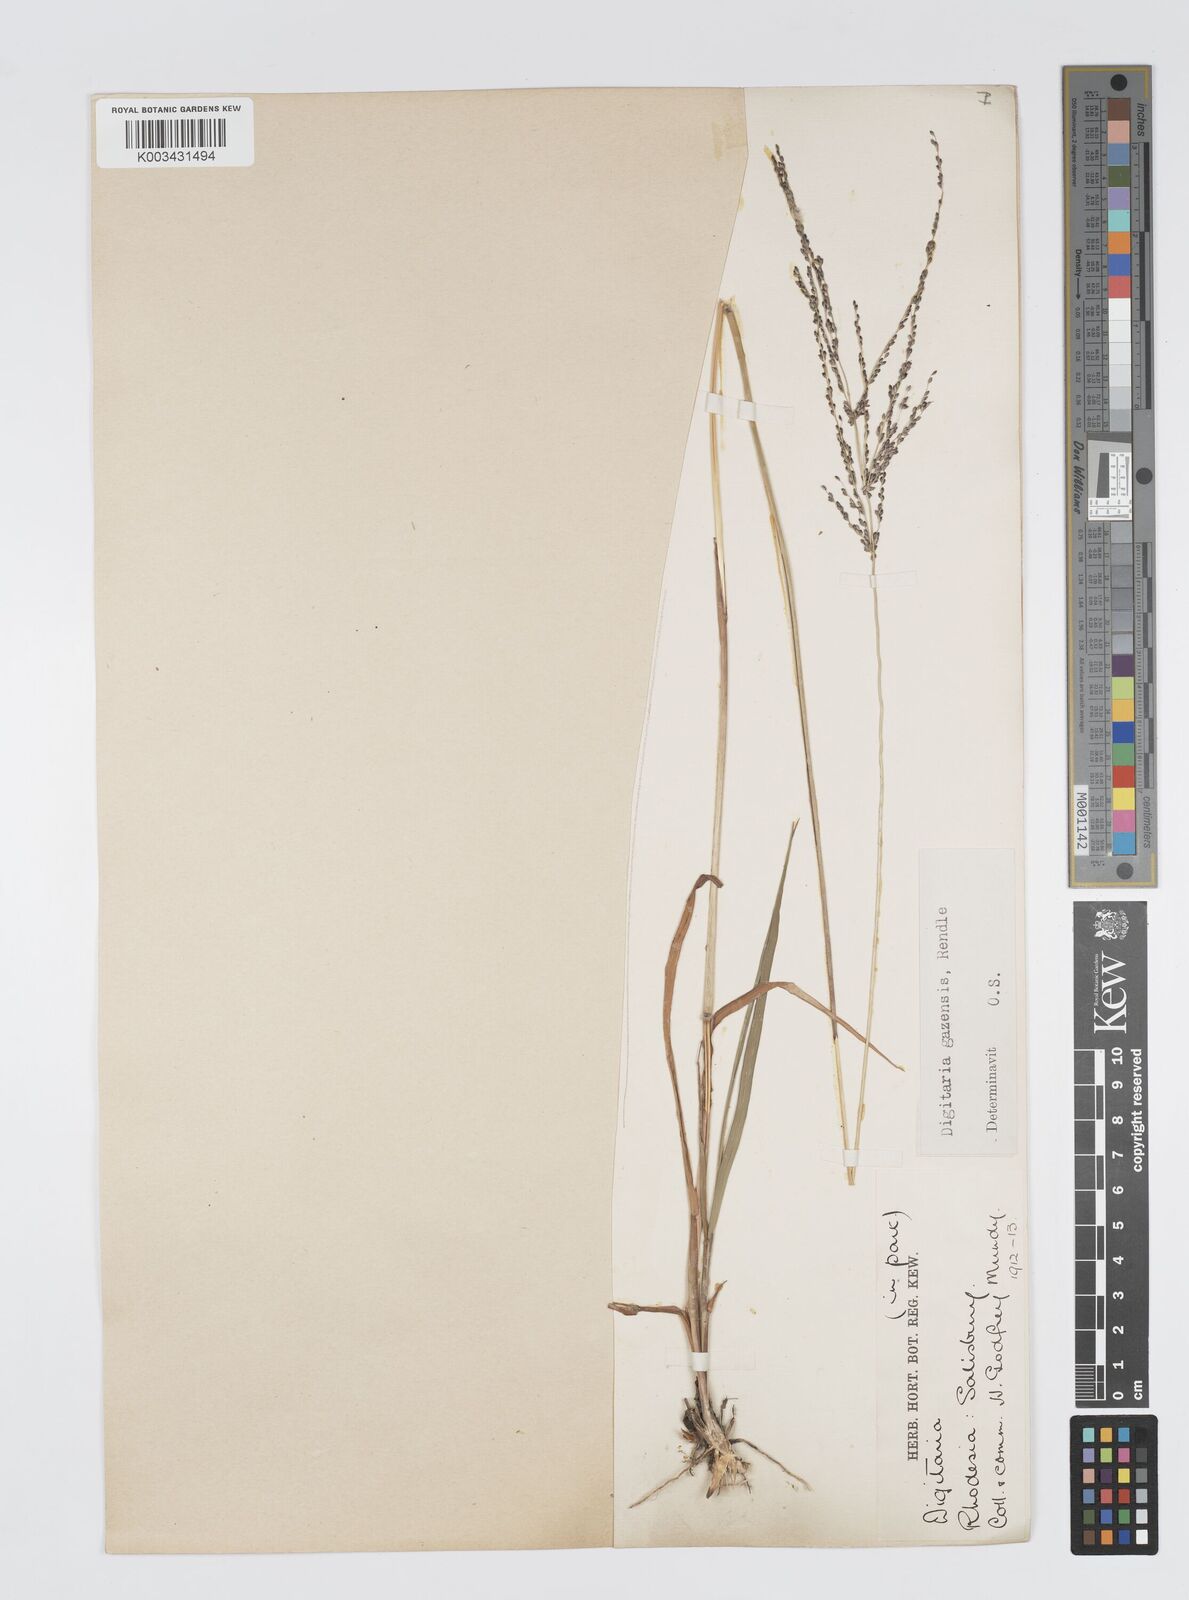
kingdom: Plantae
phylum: Tracheophyta
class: Liliopsida
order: Poales
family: Poaceae
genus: Digitaria
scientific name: Digitaria gazensis
